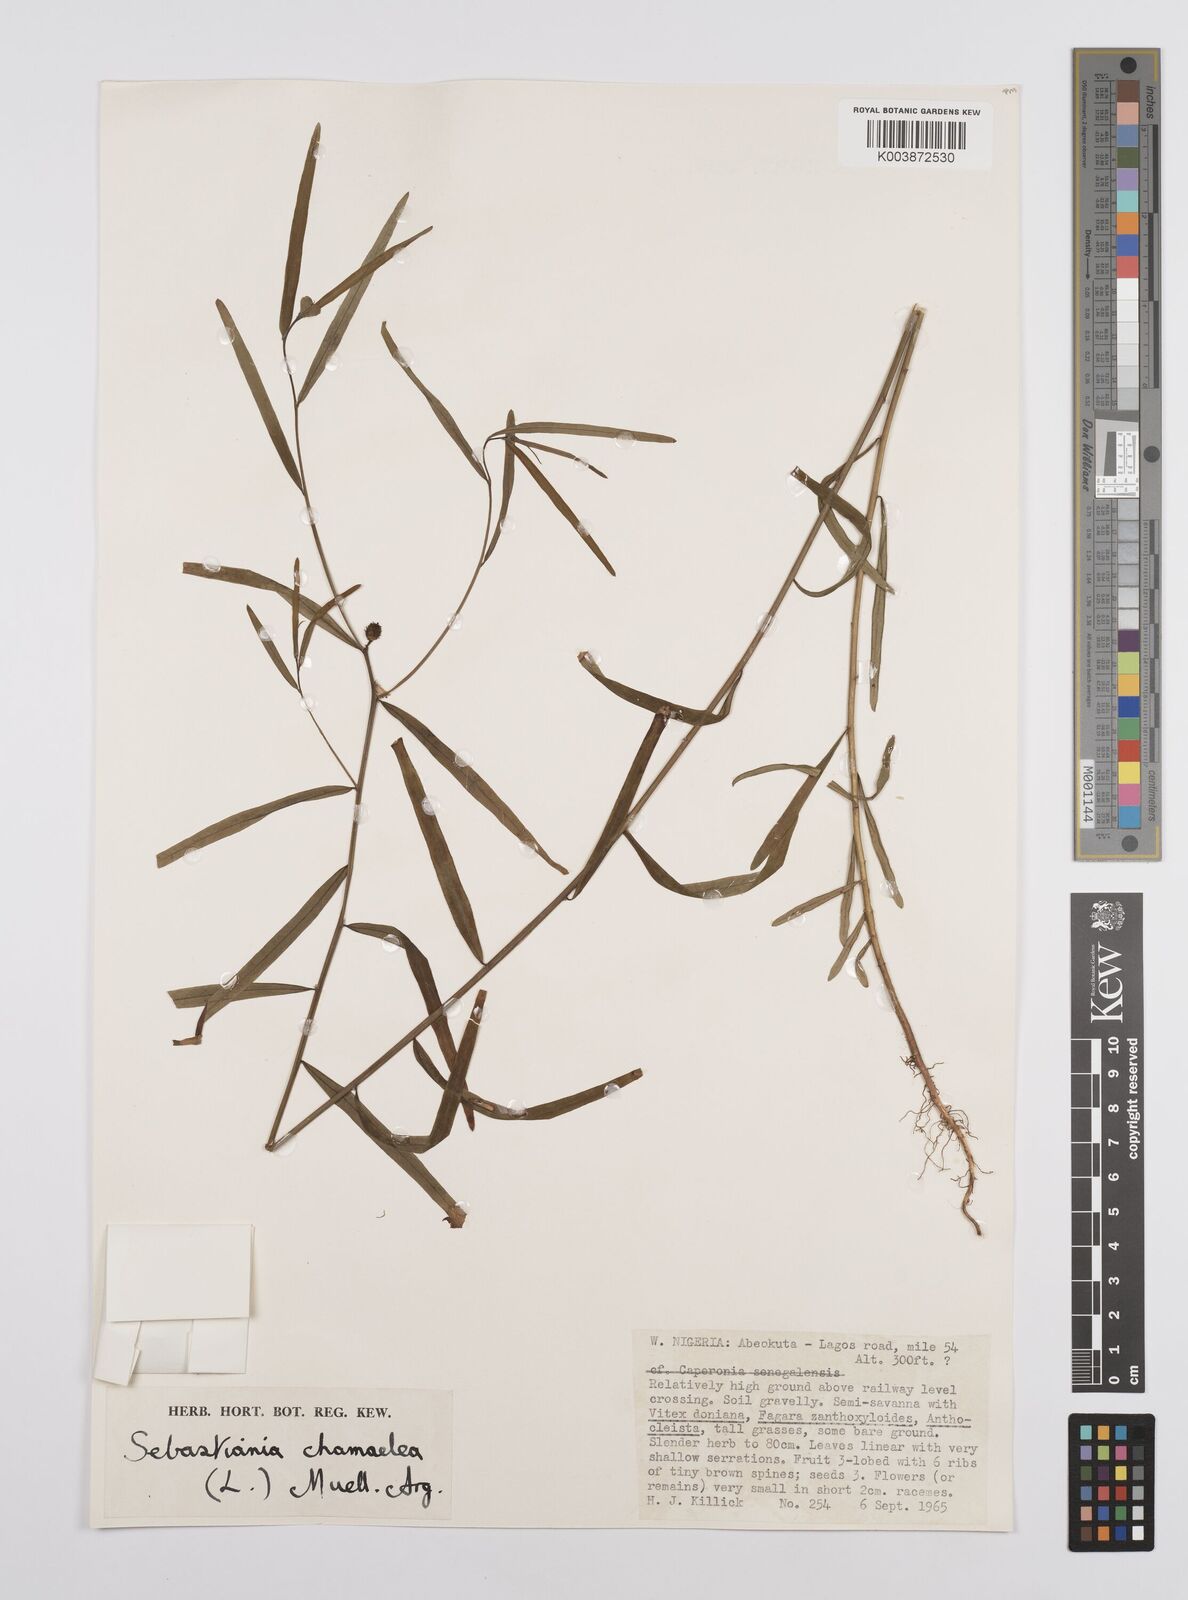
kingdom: Plantae
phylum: Tracheophyta
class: Magnoliopsida
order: Malpighiales
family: Euphorbiaceae
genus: Microstachys
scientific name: Microstachys chamaelea
